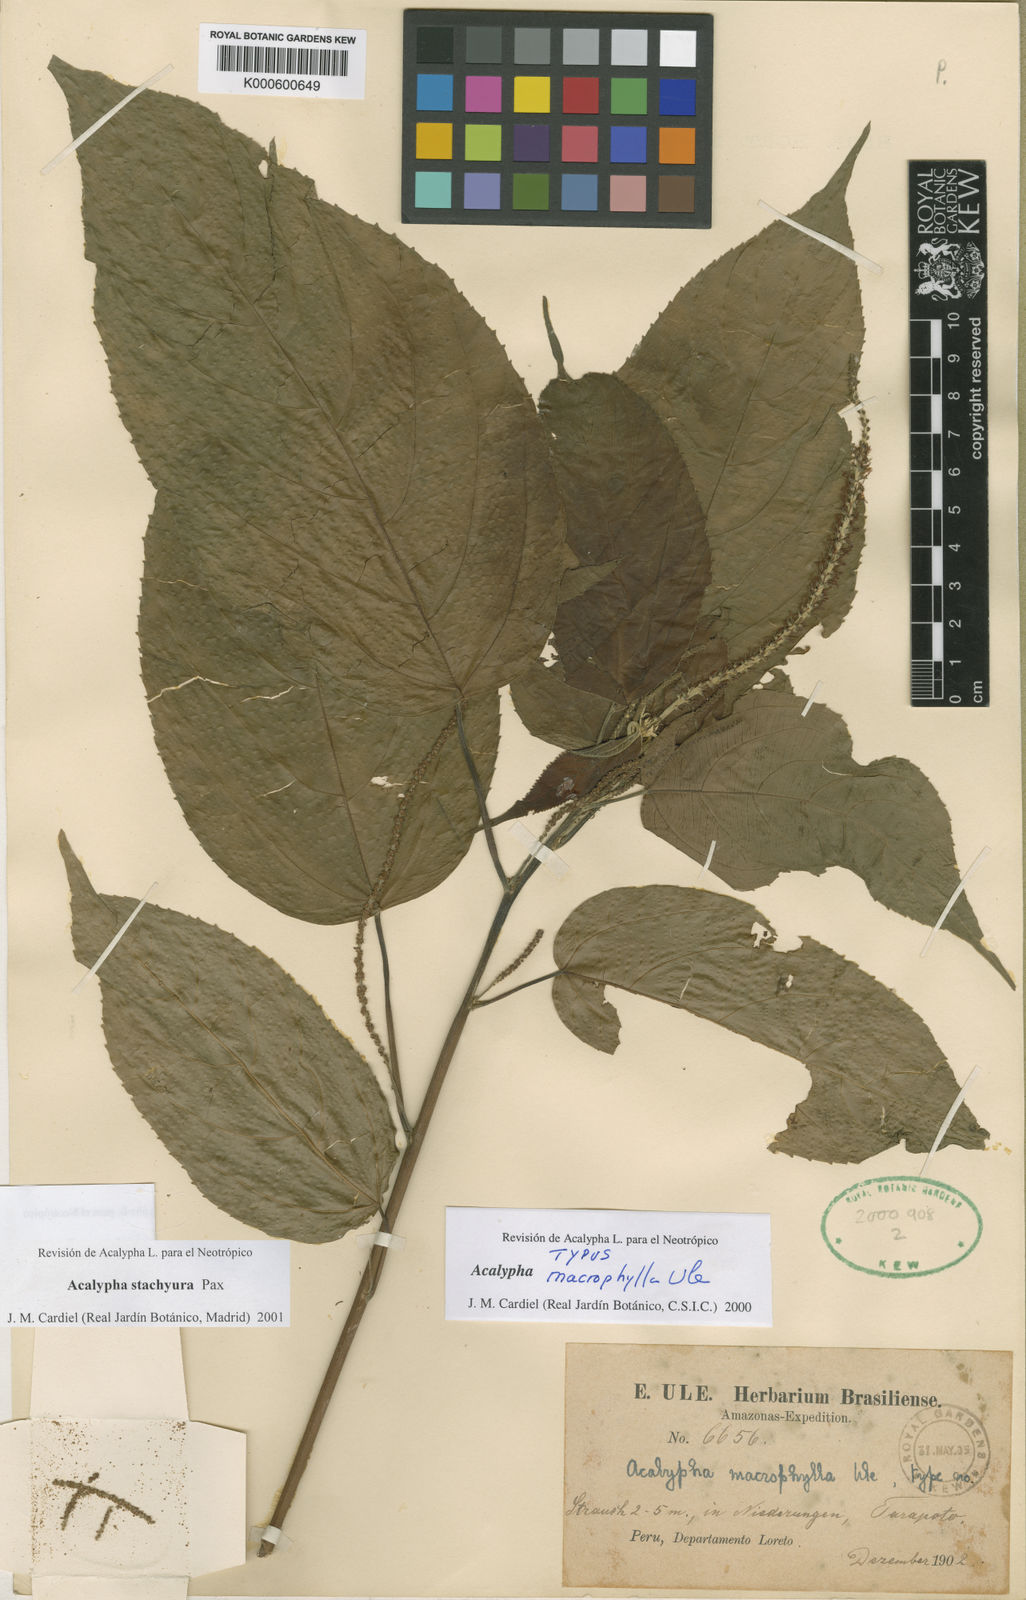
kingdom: Plantae
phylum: Tracheophyta
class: Magnoliopsida
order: Malpighiales
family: Euphorbiaceae
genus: Acalypha
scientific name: Acalypha stachyura
